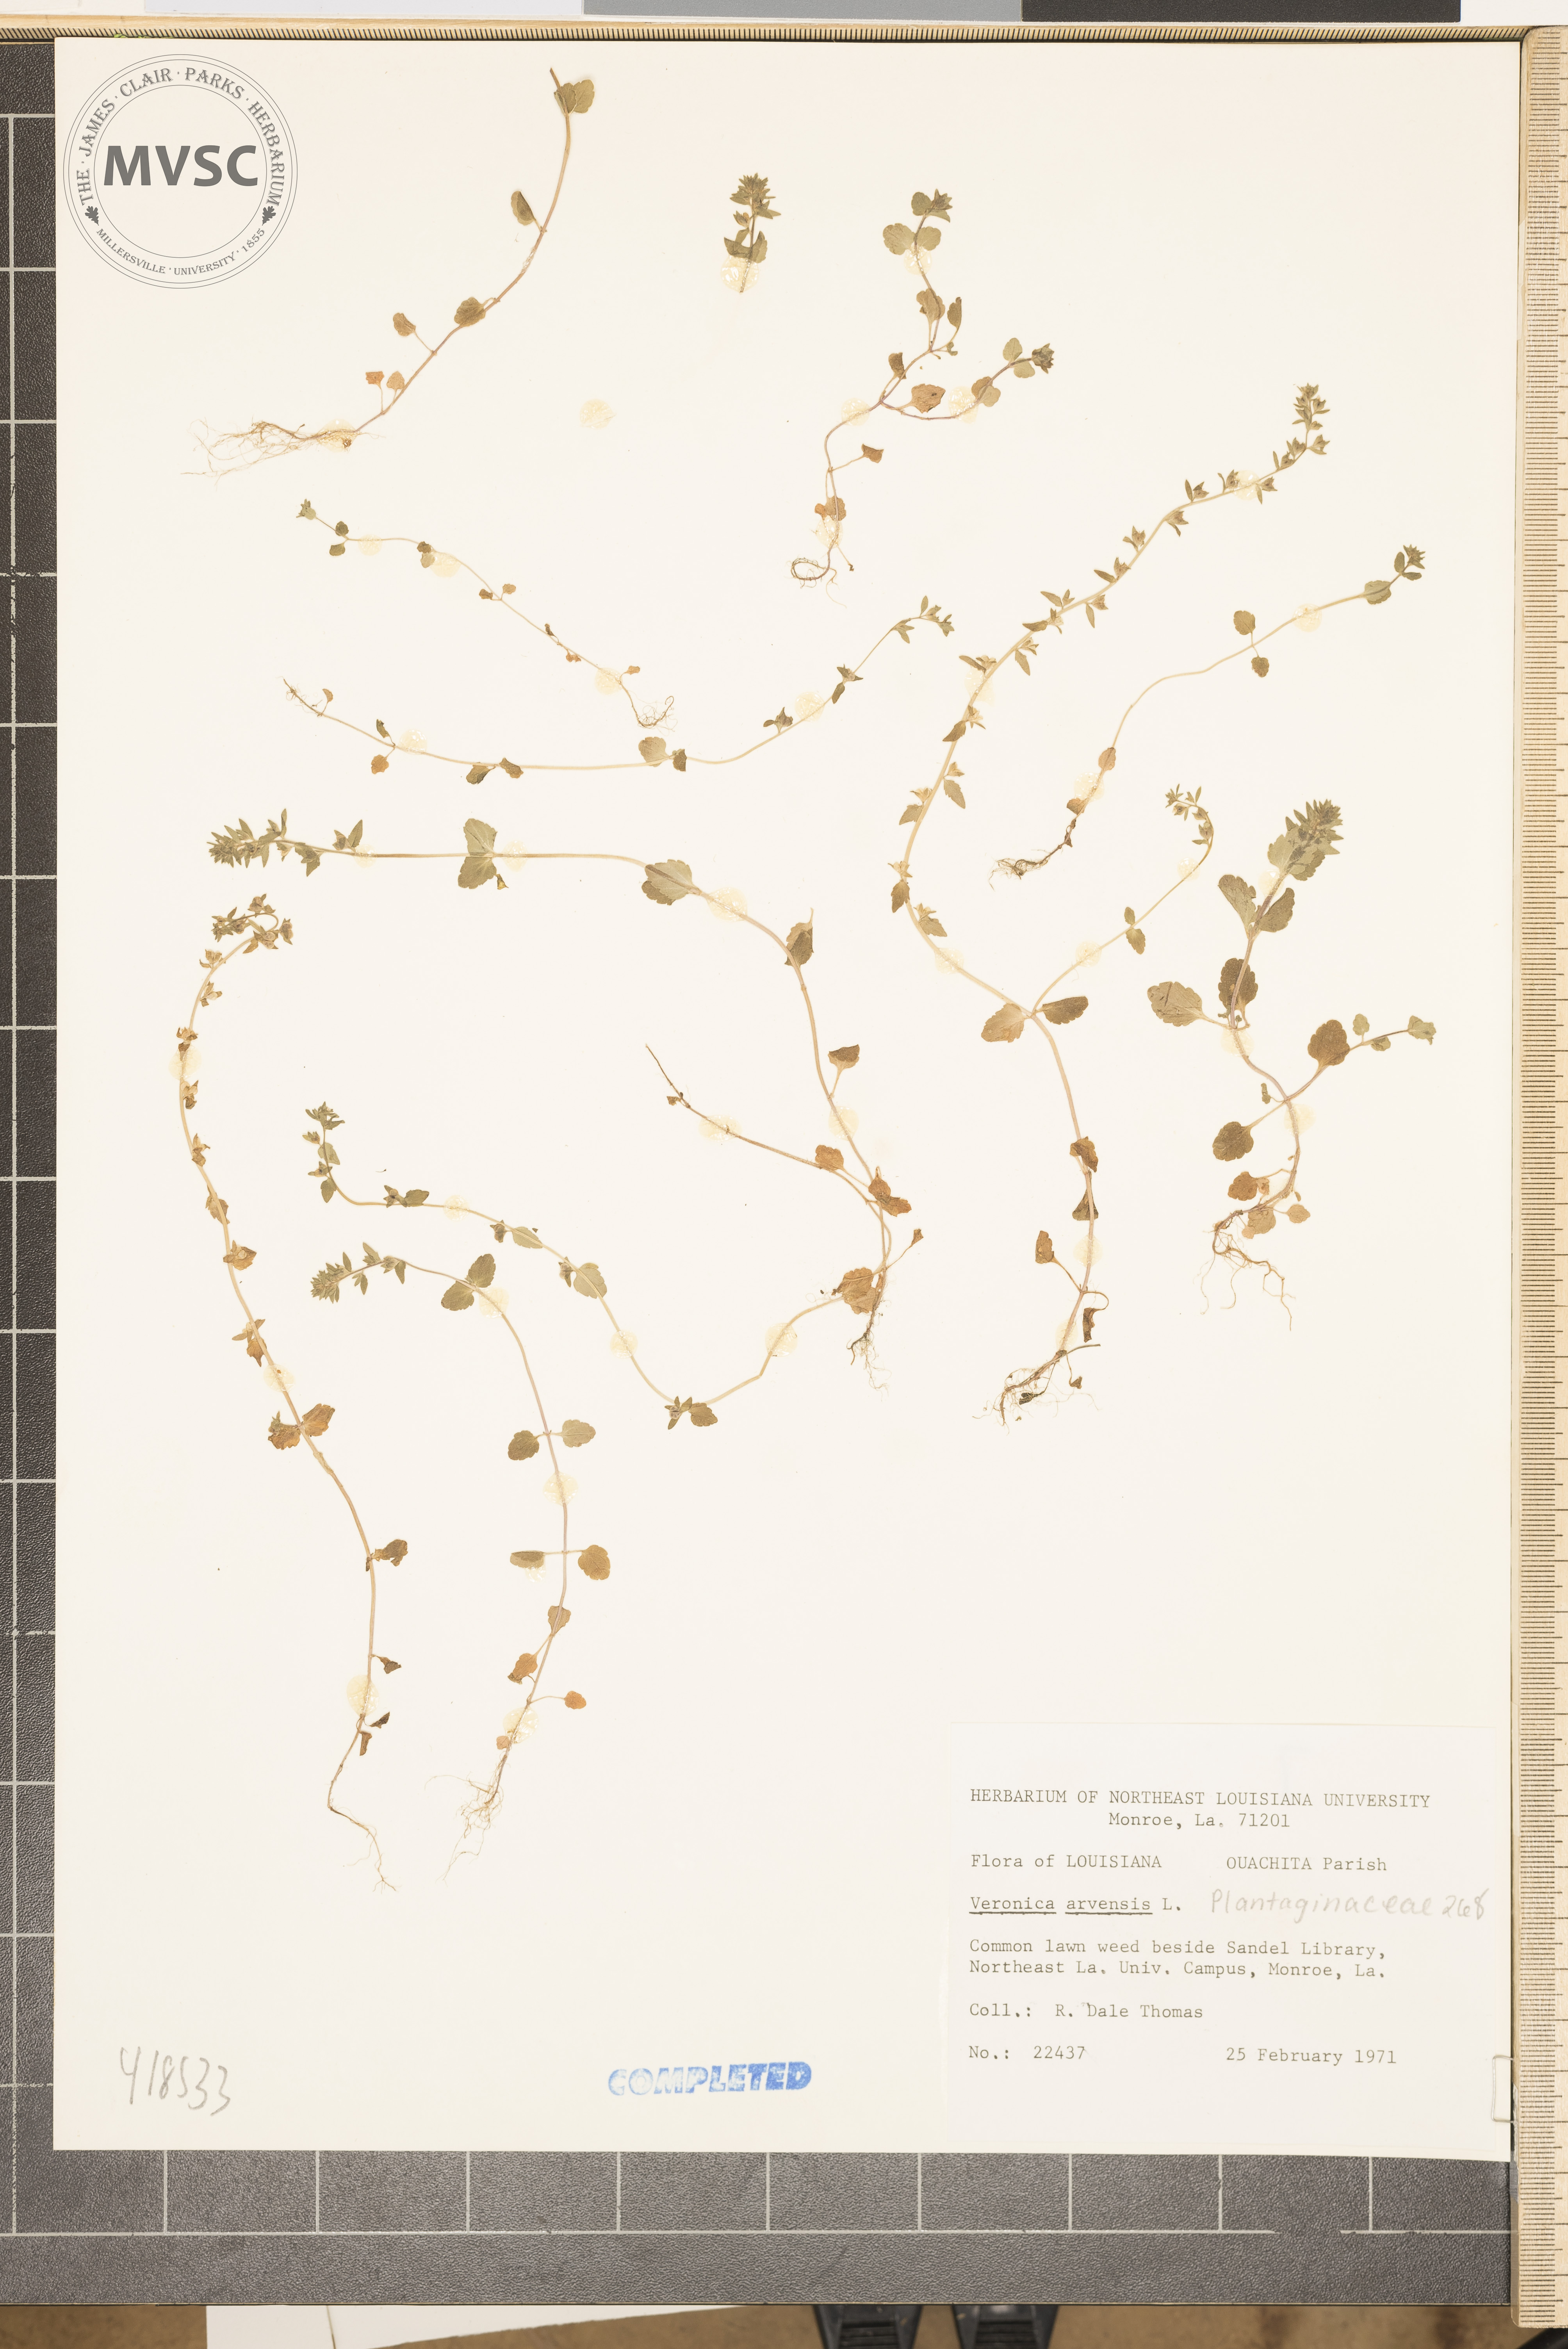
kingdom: Plantae
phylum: Tracheophyta
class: Magnoliopsida
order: Lamiales
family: Plantaginaceae
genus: Veronica
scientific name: Veronica arvensis
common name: Wall speedwell
